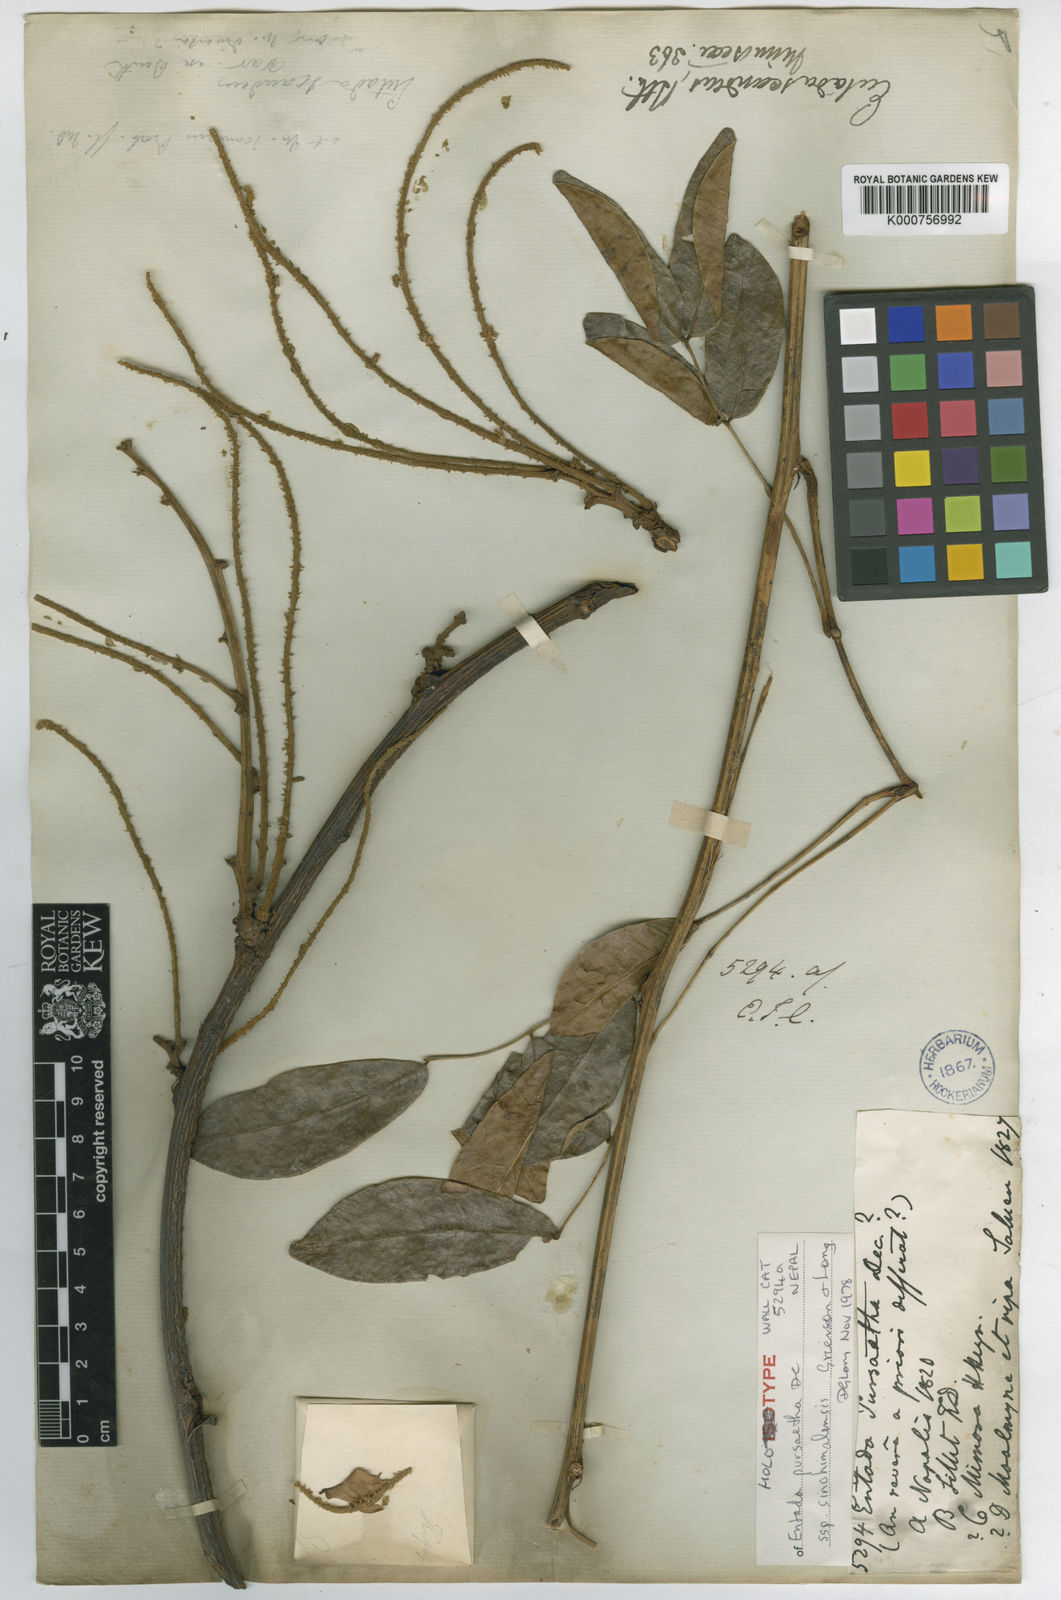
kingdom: Plantae
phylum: Tracheophyta
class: Magnoliopsida
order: Fabales
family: Fabaceae
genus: Entada
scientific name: Entada rheedei
